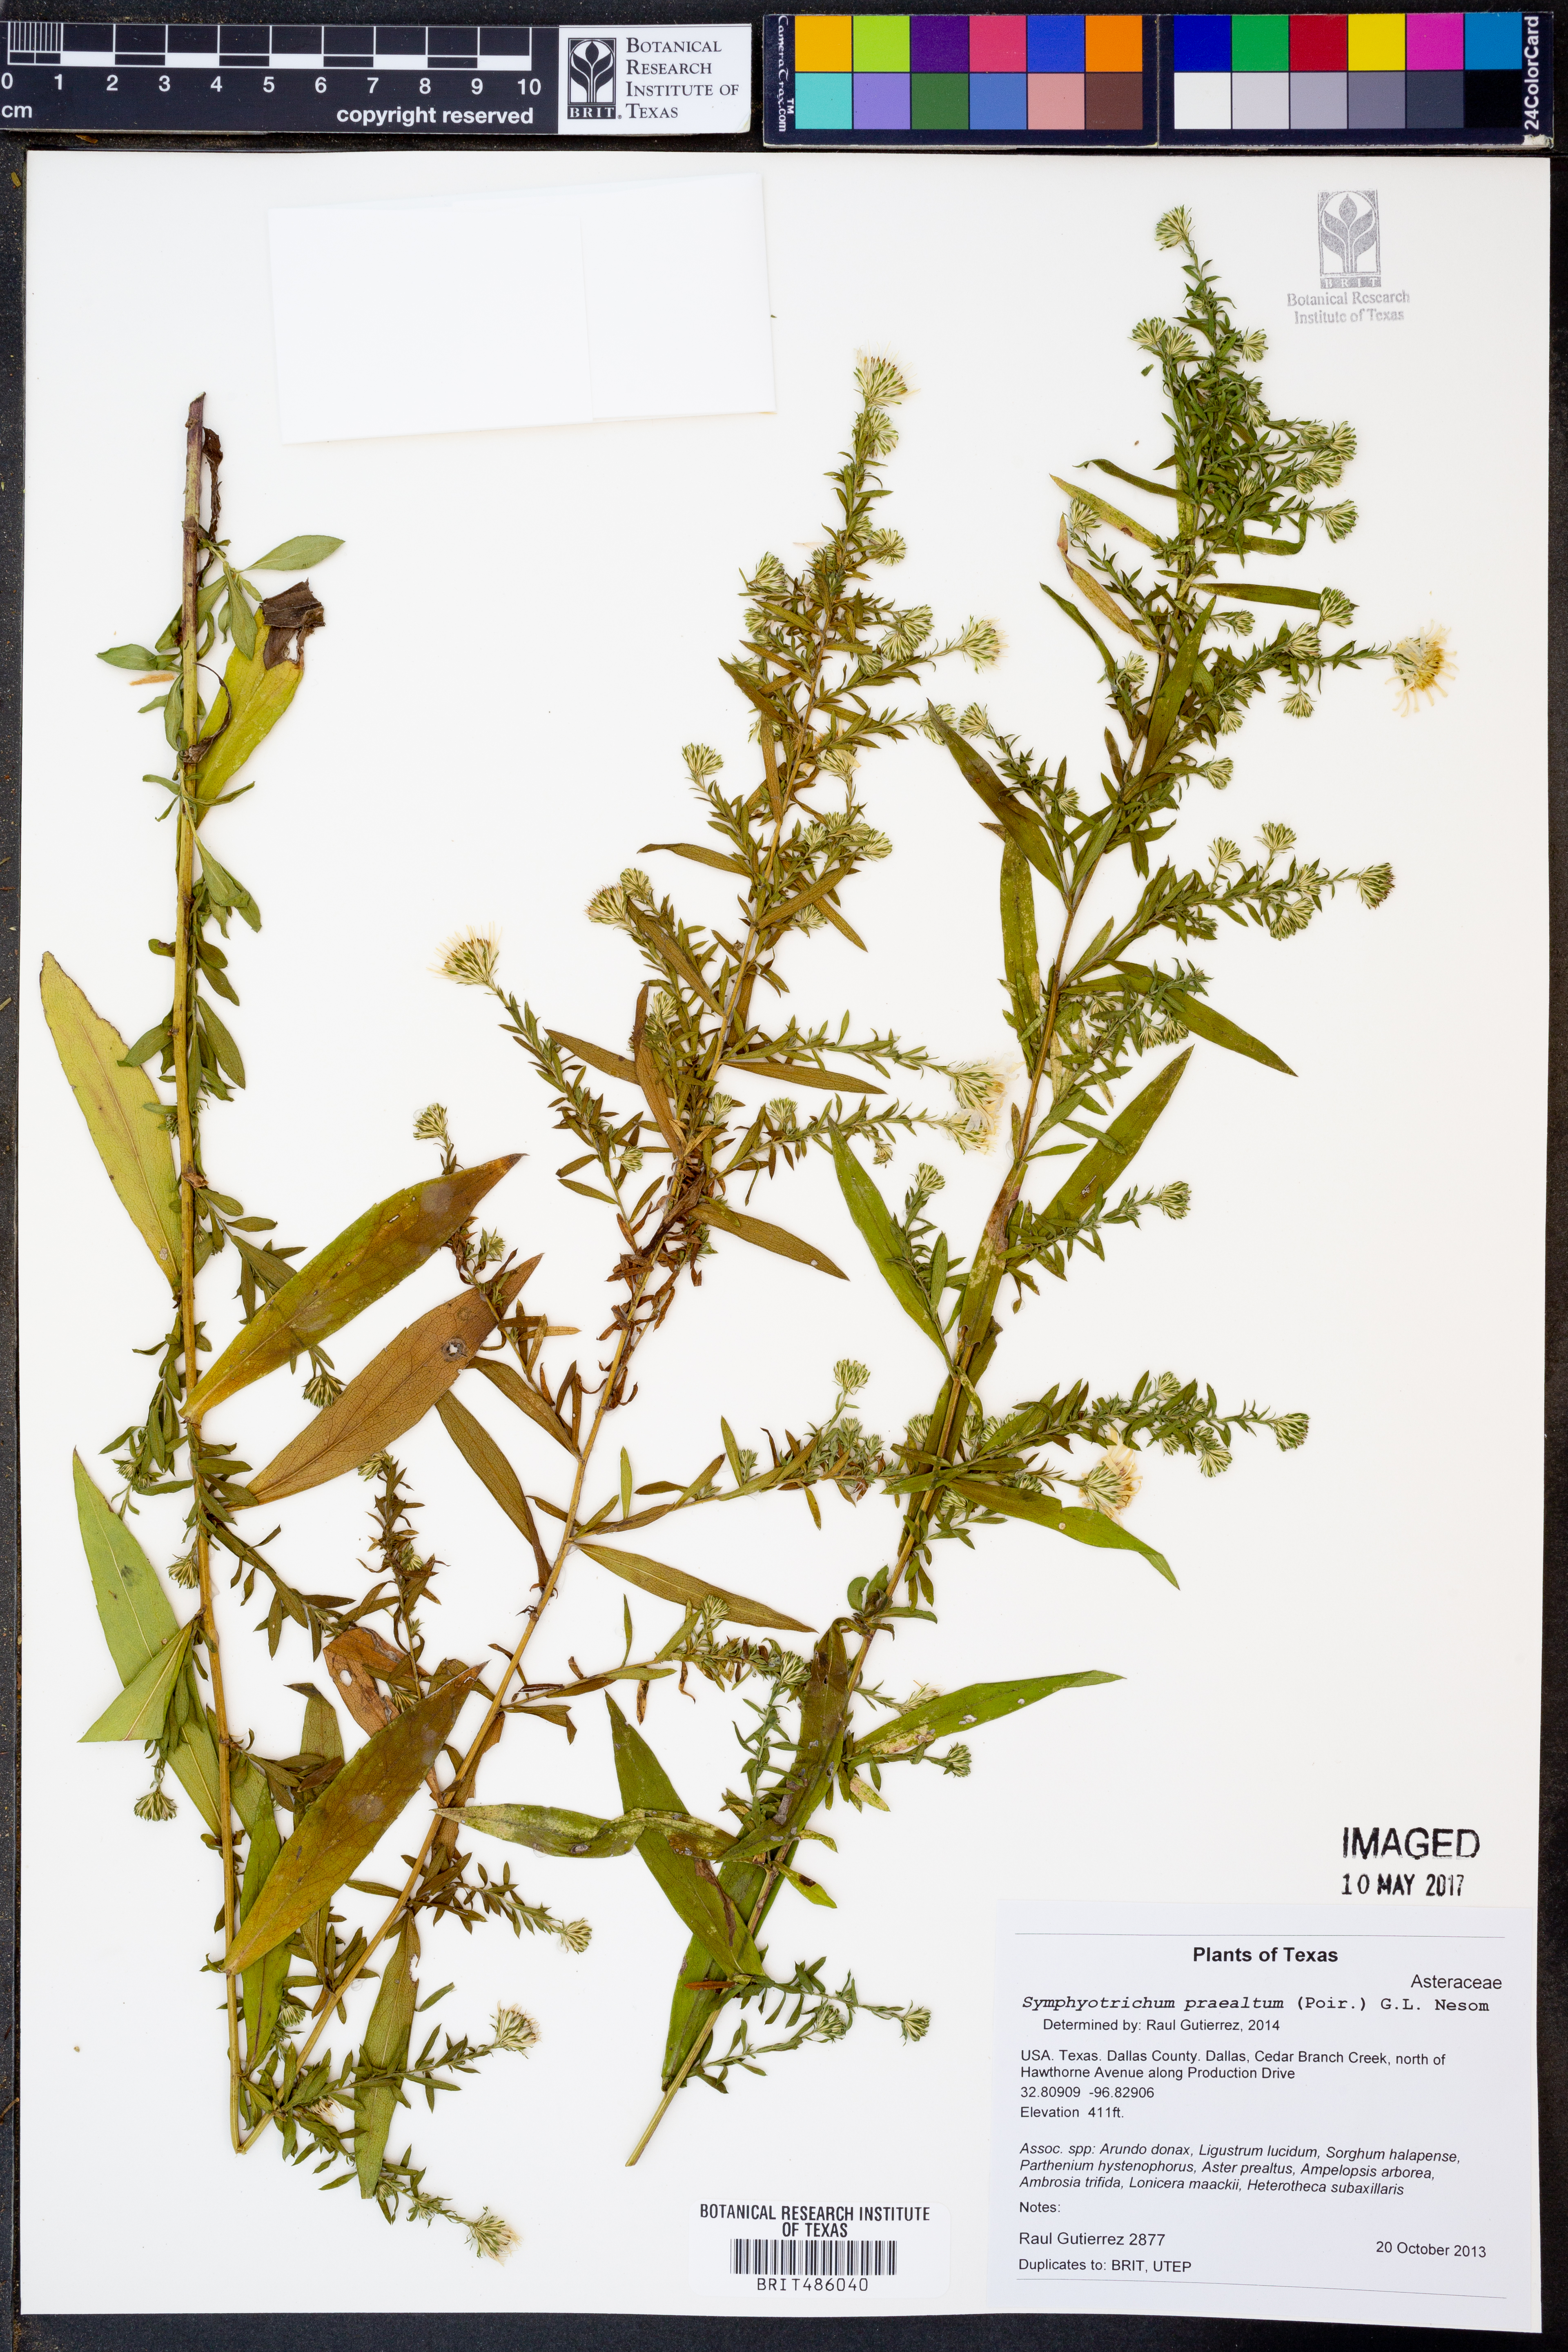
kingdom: Plantae
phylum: Tracheophyta
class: Magnoliopsida
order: Asterales
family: Asteraceae
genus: Symphyotrichum
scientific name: Symphyotrichum praealtum
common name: Willow aster
